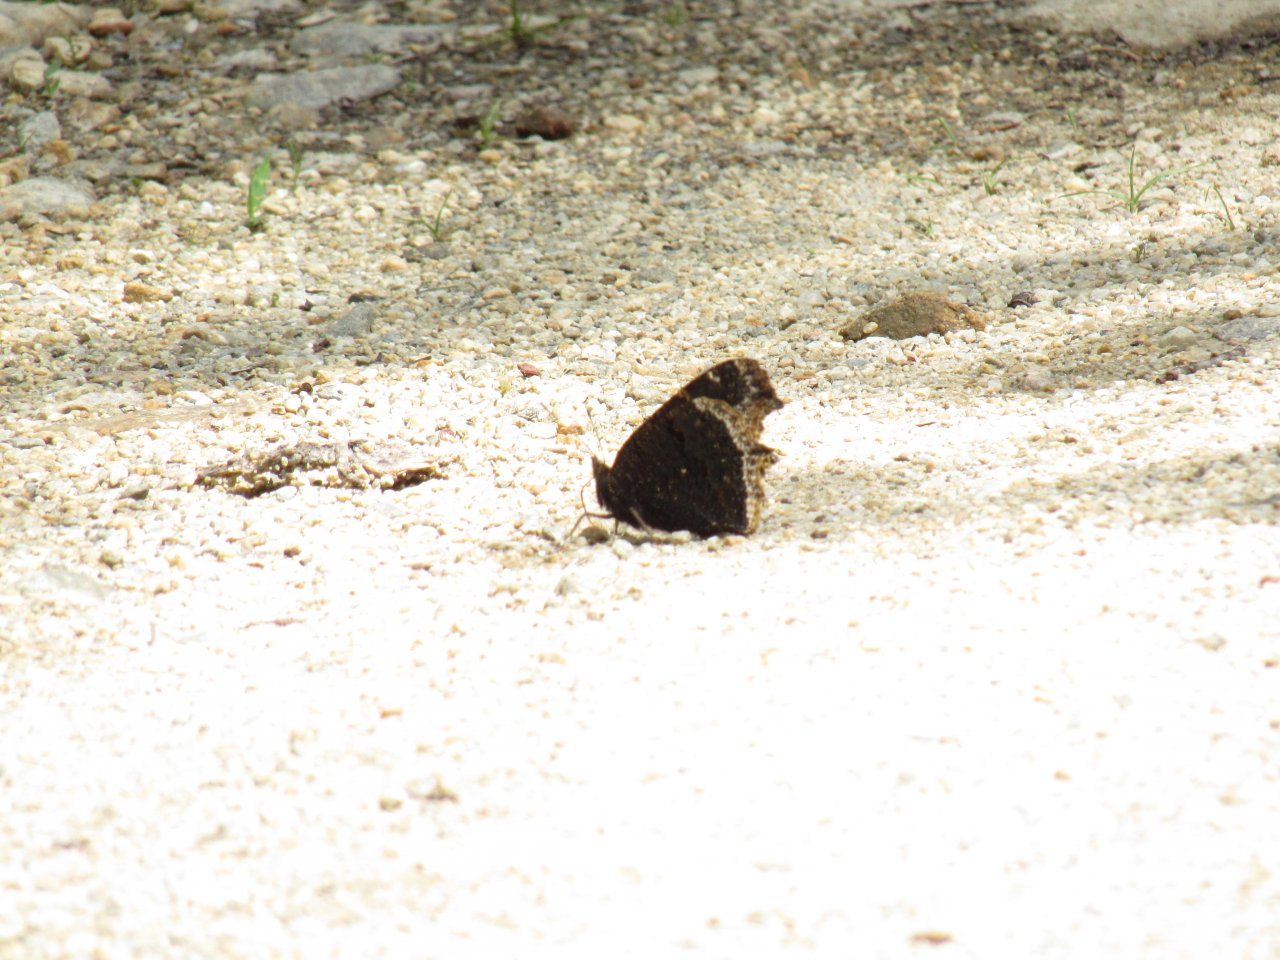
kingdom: Animalia
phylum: Arthropoda
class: Insecta
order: Lepidoptera
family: Nymphalidae
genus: Nymphalis
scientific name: Nymphalis antiopa
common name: Mourning Cloak
